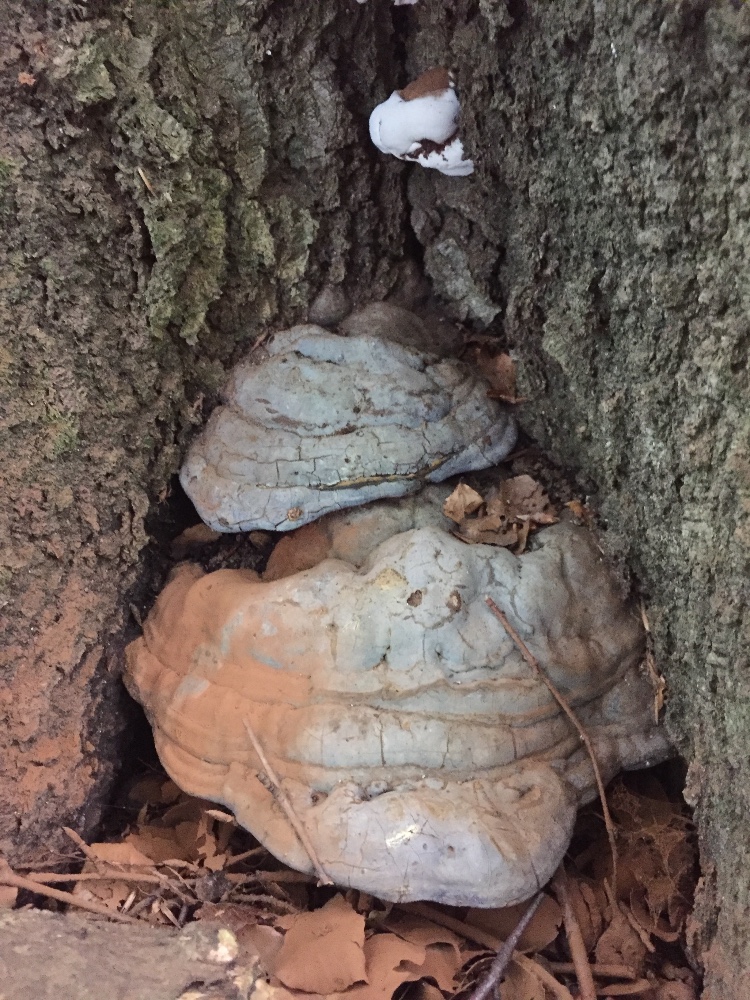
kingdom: Fungi
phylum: Basidiomycota
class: Agaricomycetes
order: Polyporales
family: Polyporaceae
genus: Ganoderma
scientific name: Ganoderma pfeifferi
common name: kobberrød lakporesvamp
